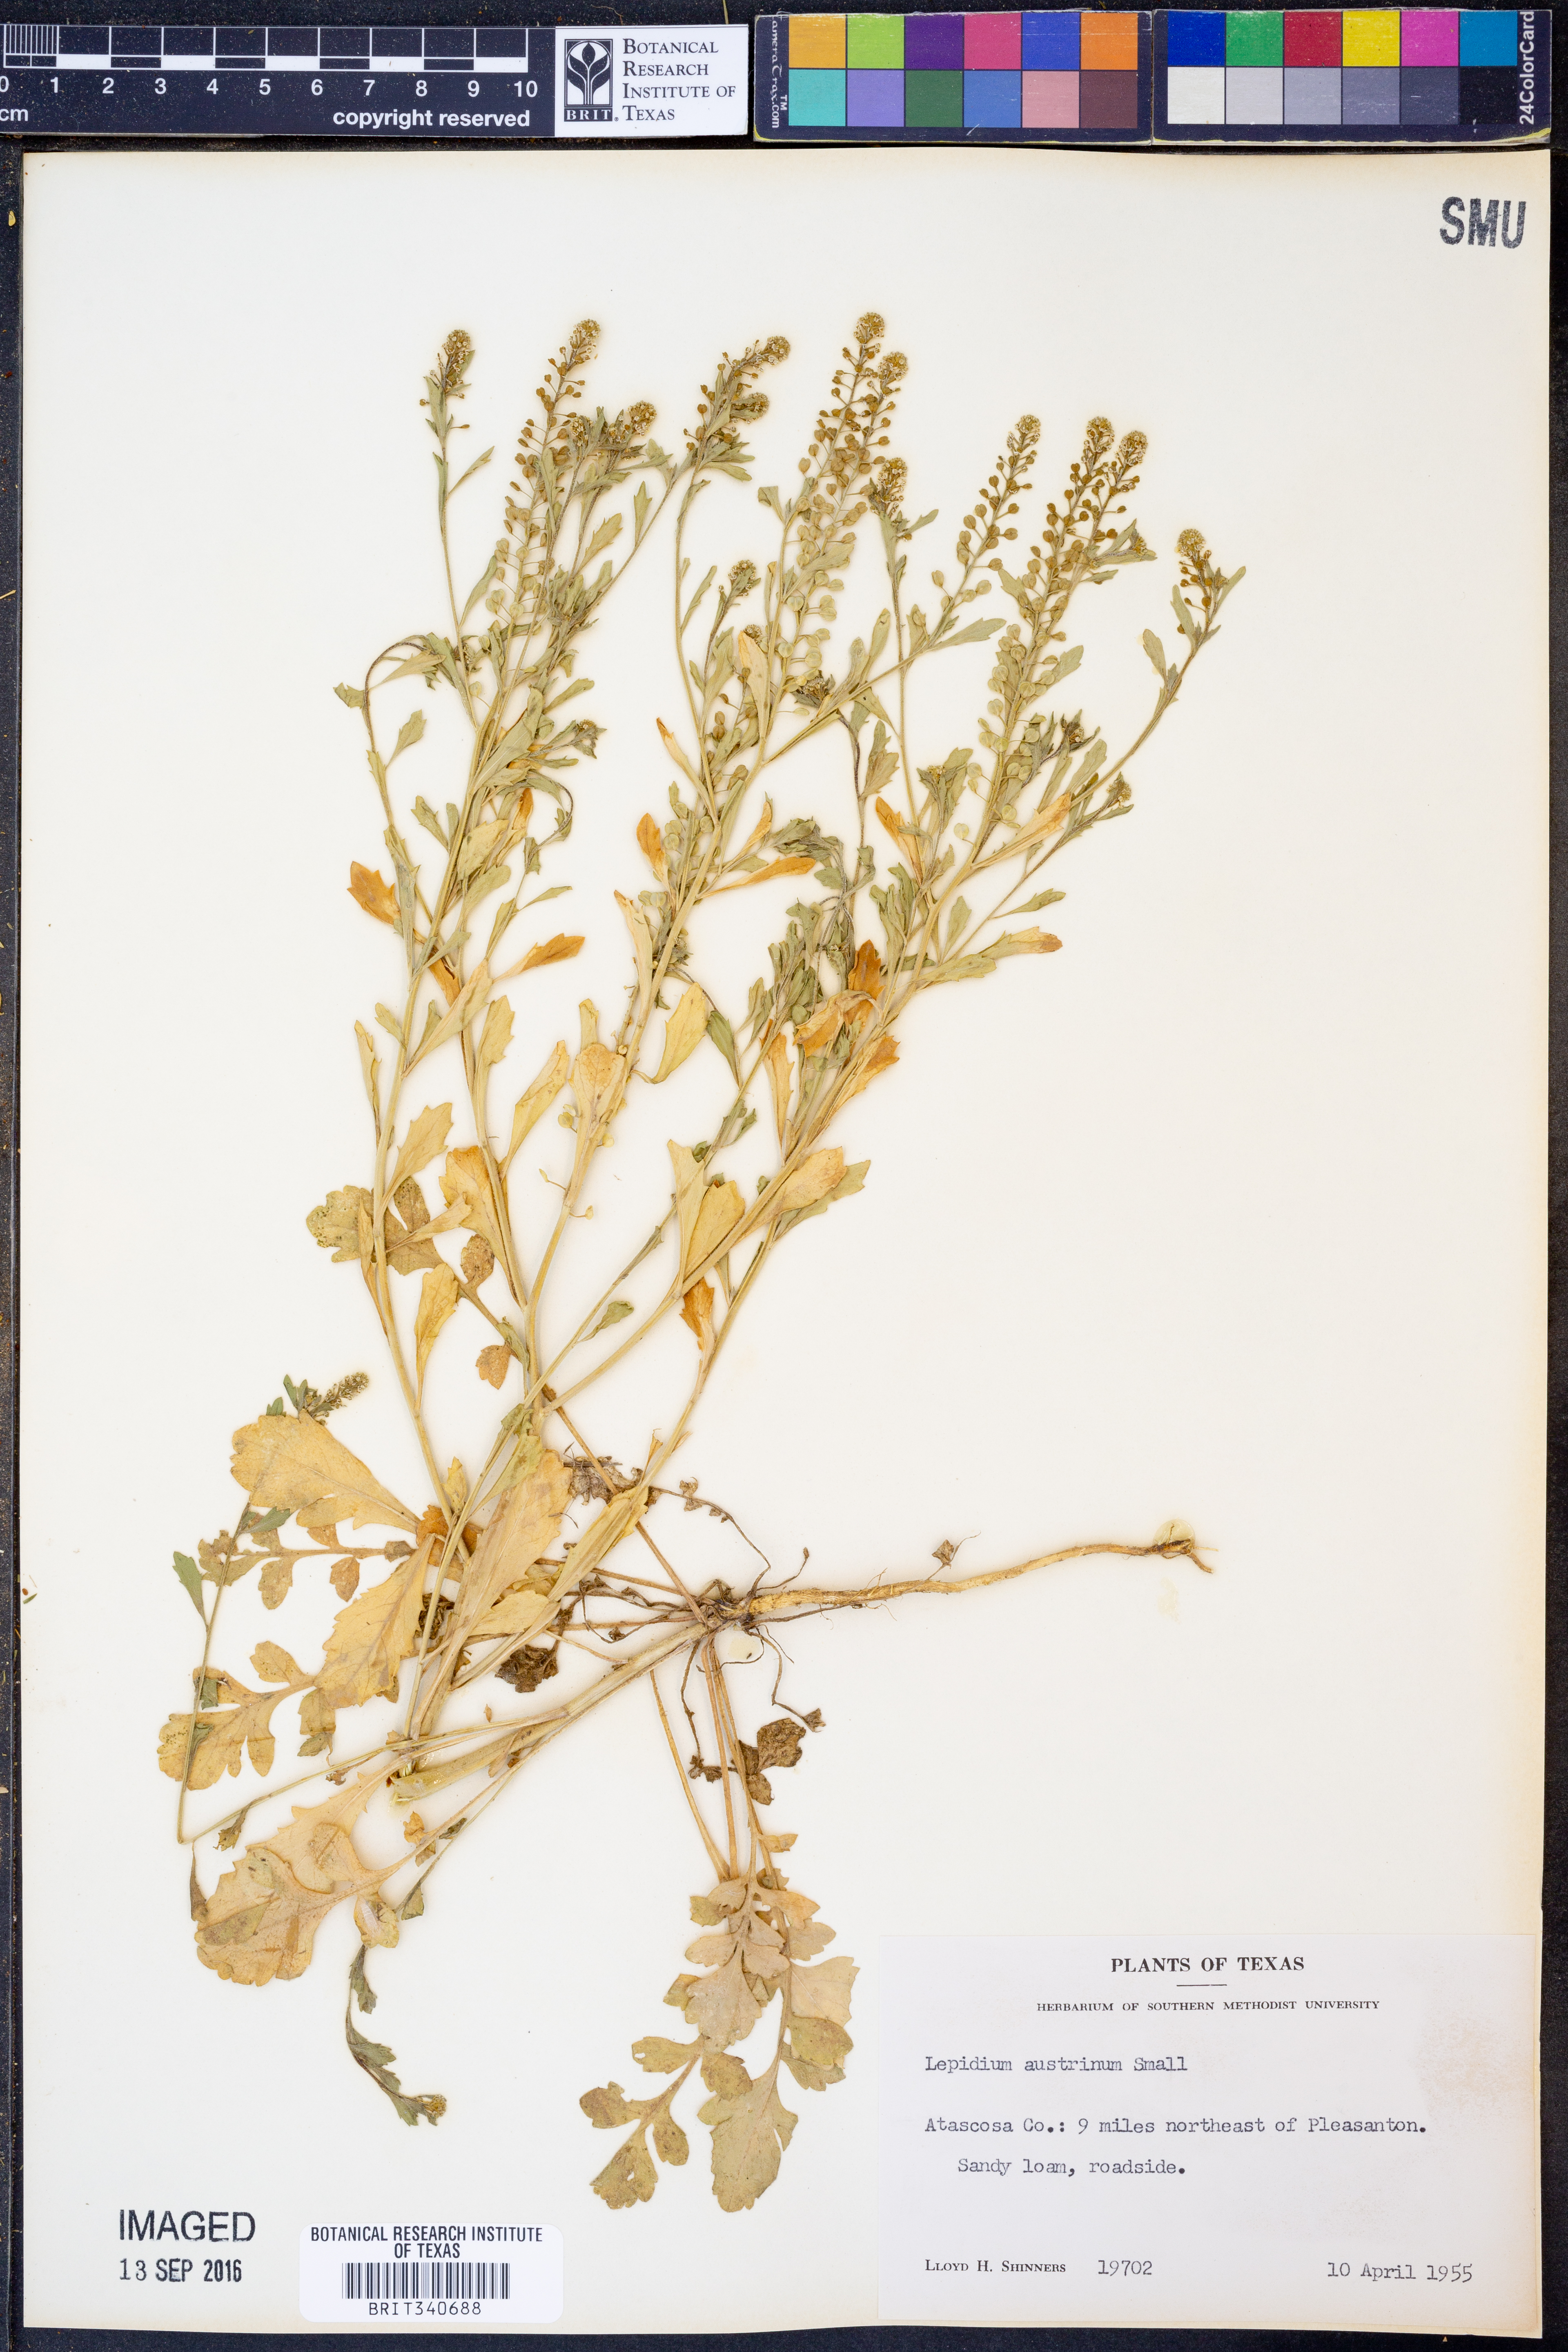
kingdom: Plantae
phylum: Tracheophyta
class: Magnoliopsida
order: Brassicales
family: Brassicaceae
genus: Lepidium
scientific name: Lepidium austrinum
